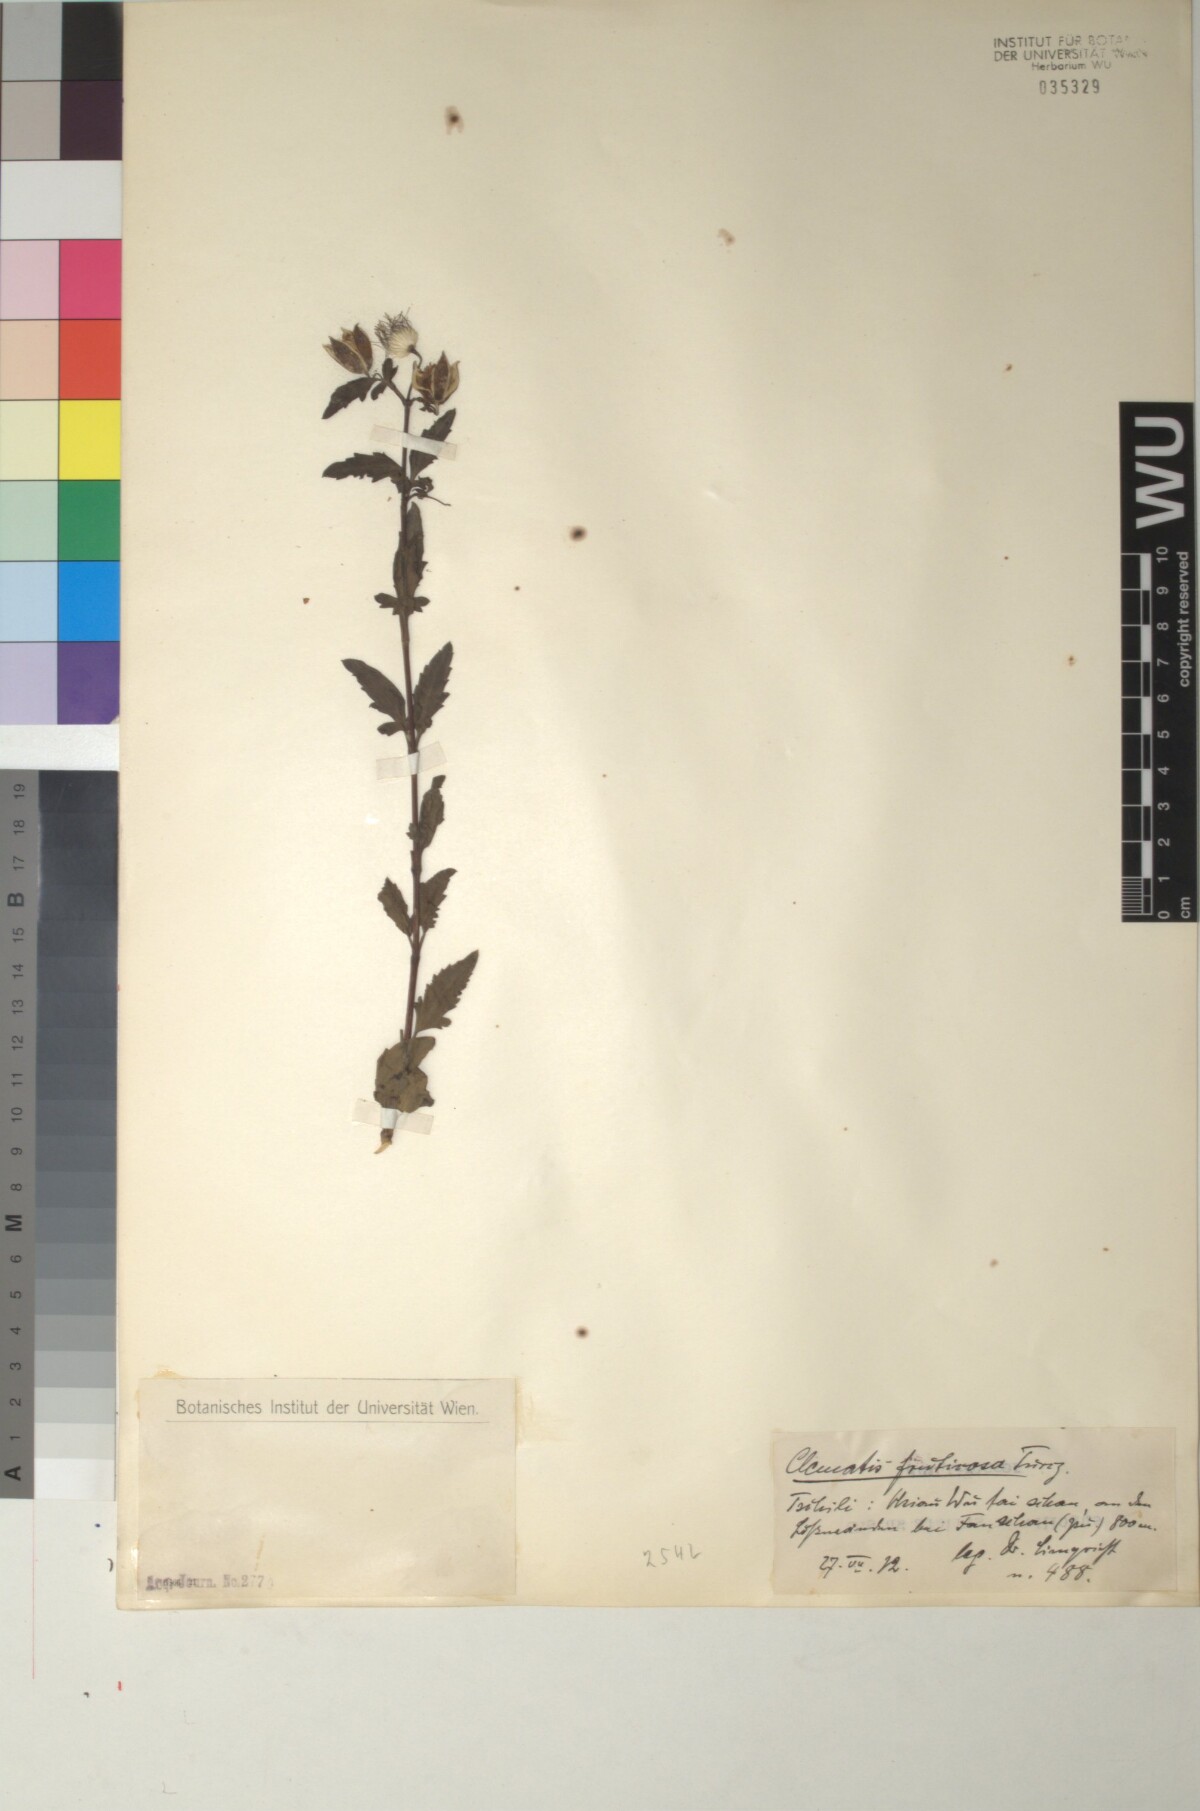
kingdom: Plantae
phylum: Tracheophyta
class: Magnoliopsida
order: Ranunculales
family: Ranunculaceae
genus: Clematis
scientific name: Clematis fruticosa
